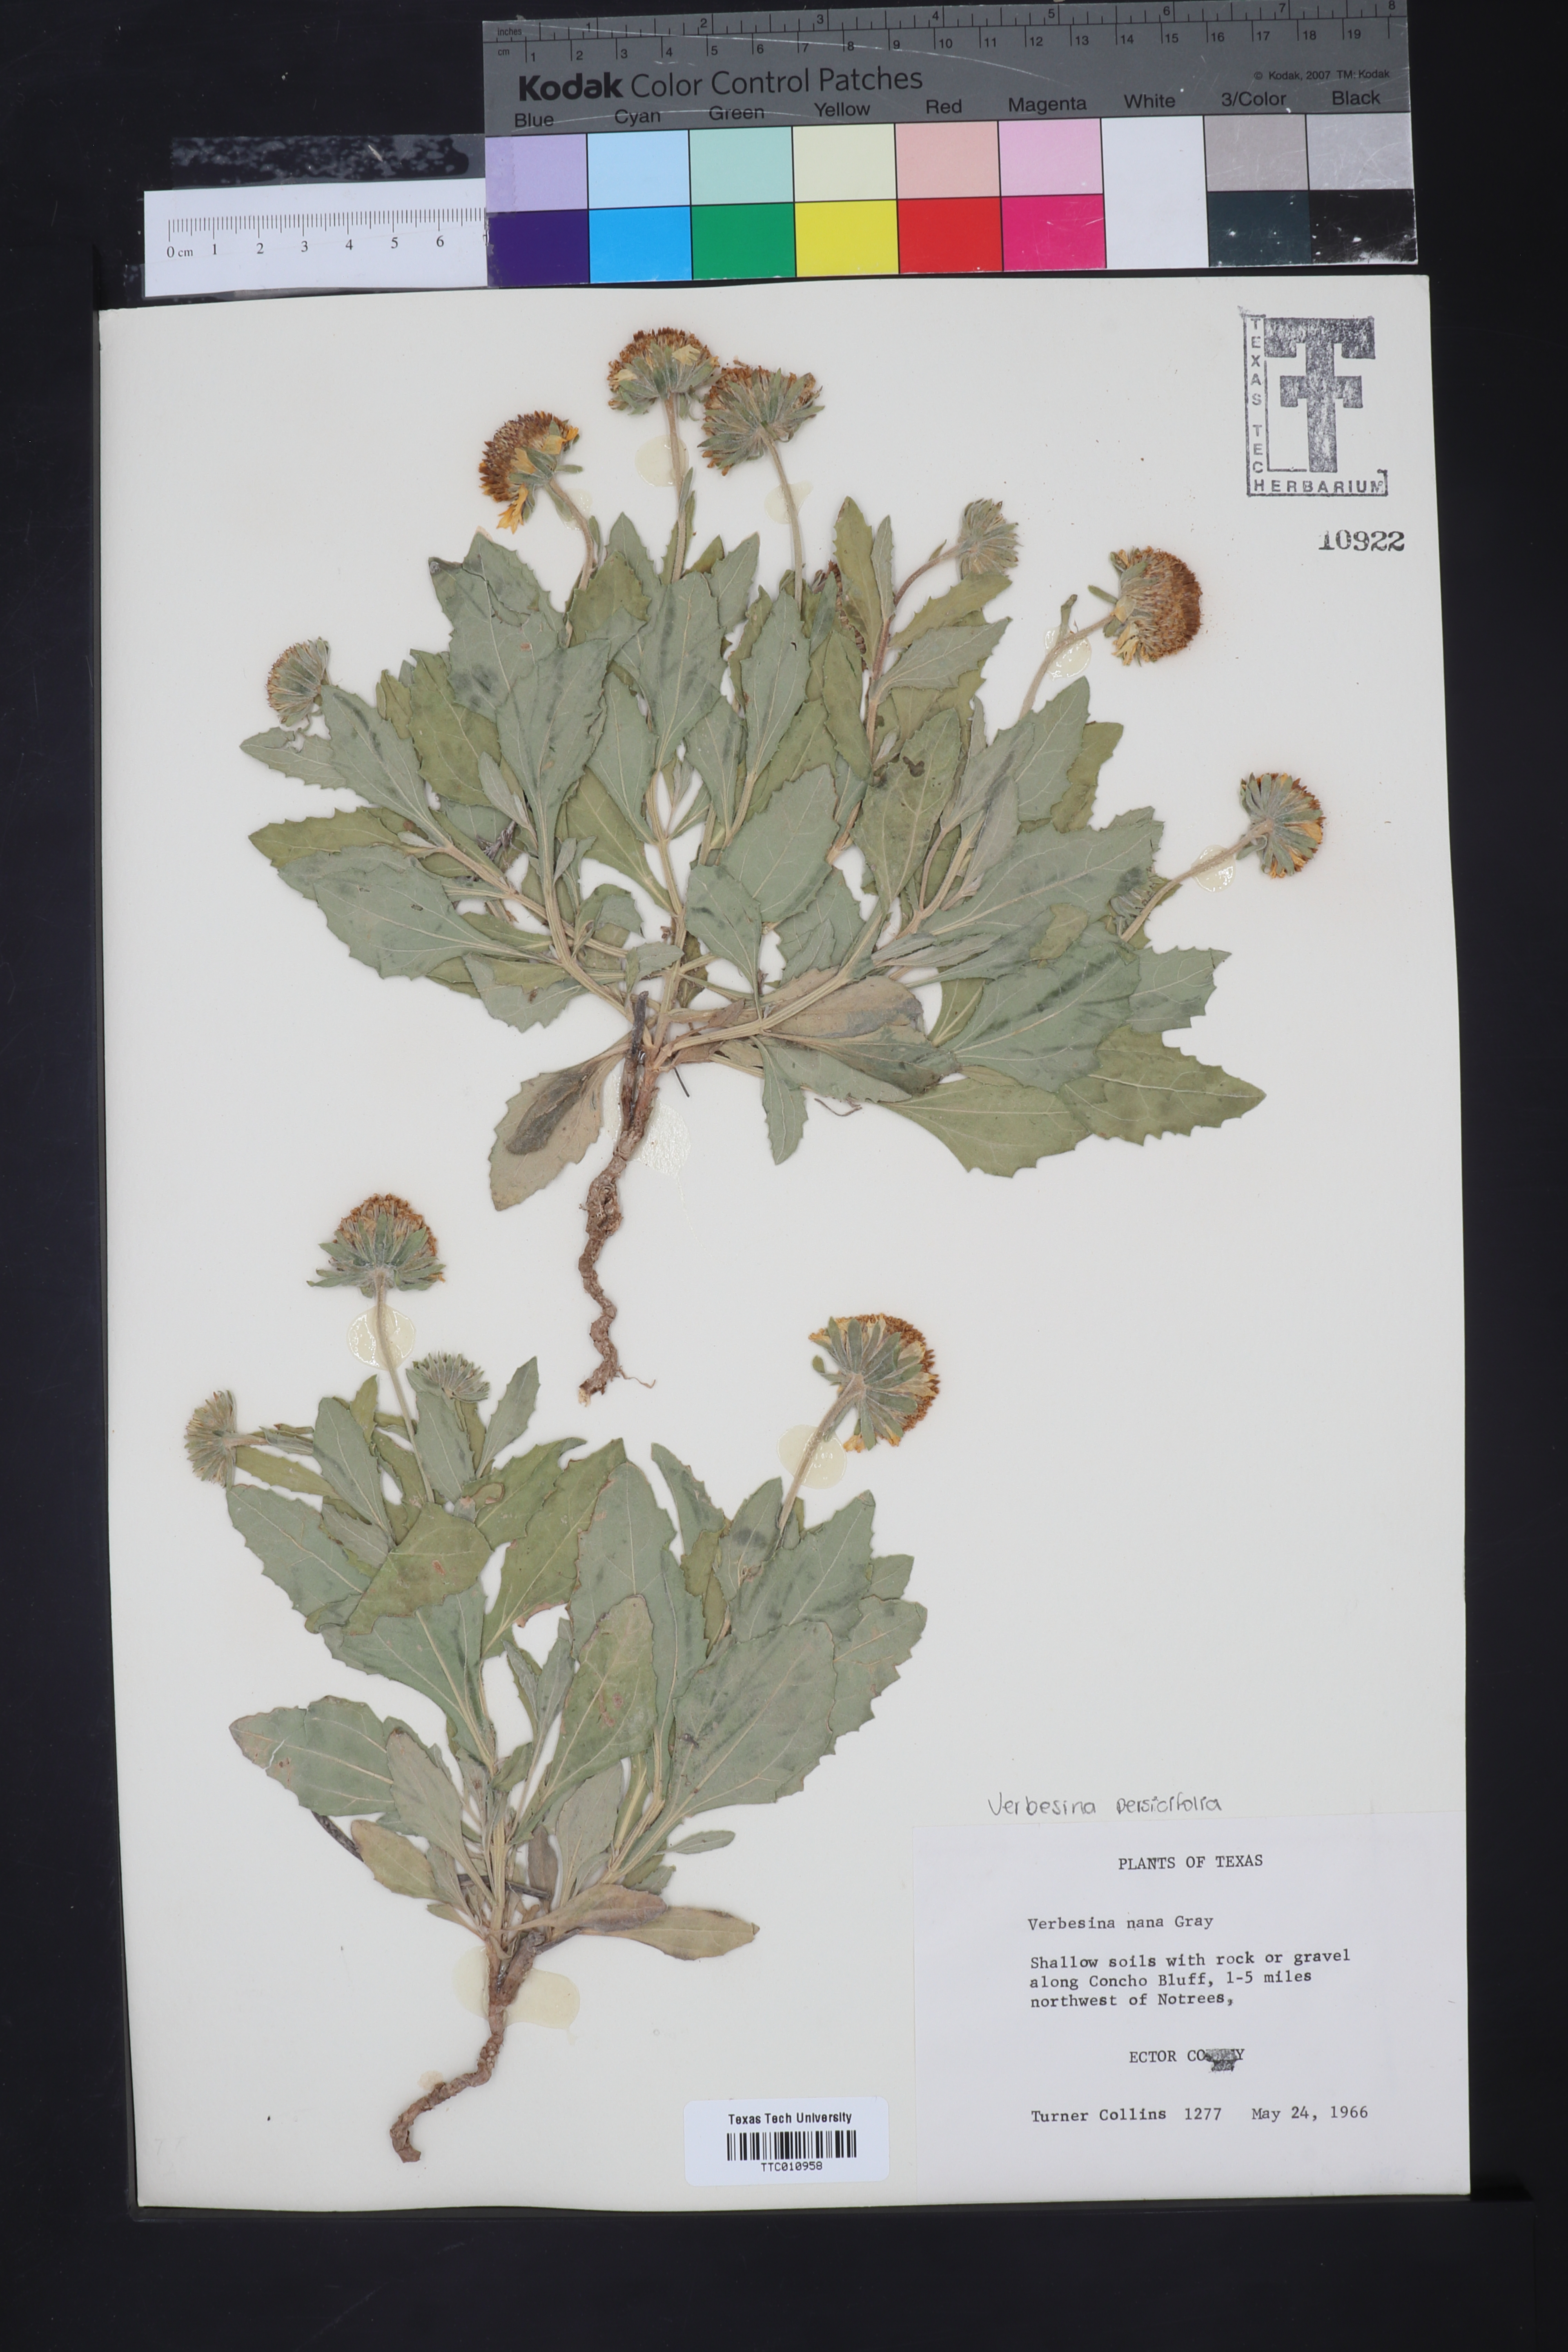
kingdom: Plantae
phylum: Tracheophyta
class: Magnoliopsida
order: Asterales
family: Asteraceae
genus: Verbesina
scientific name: Verbesina nana
